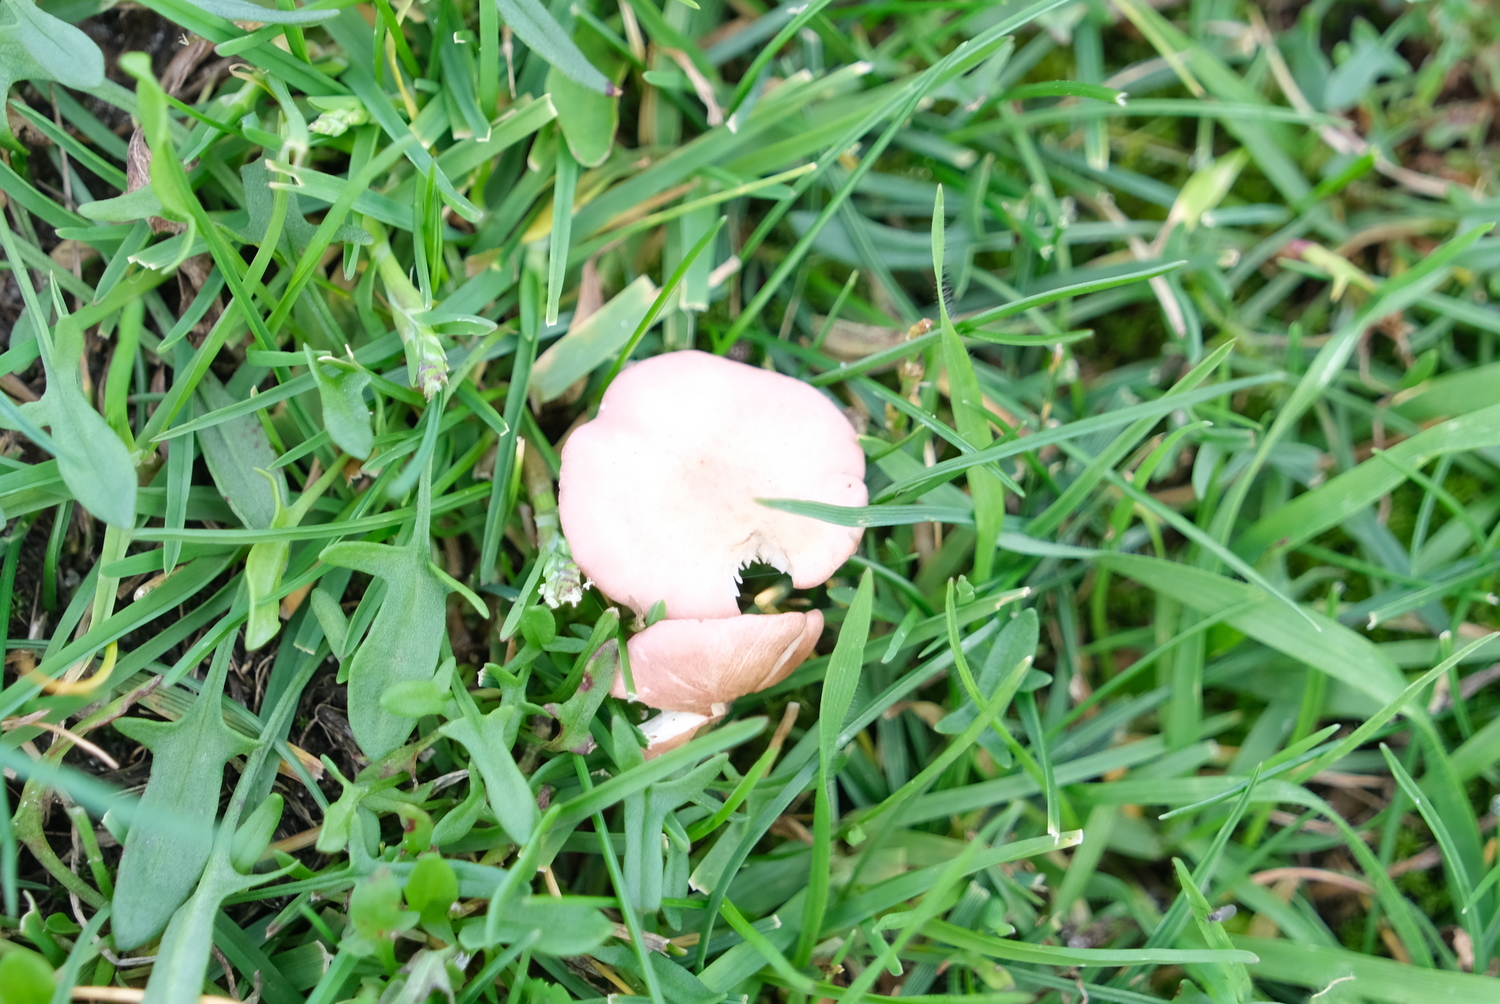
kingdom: Fungi
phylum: Basidiomycota
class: Agaricomycetes
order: Agaricales
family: Lyophyllaceae
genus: Calocybe
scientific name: Calocybe carnea
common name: rosa fagerhat
